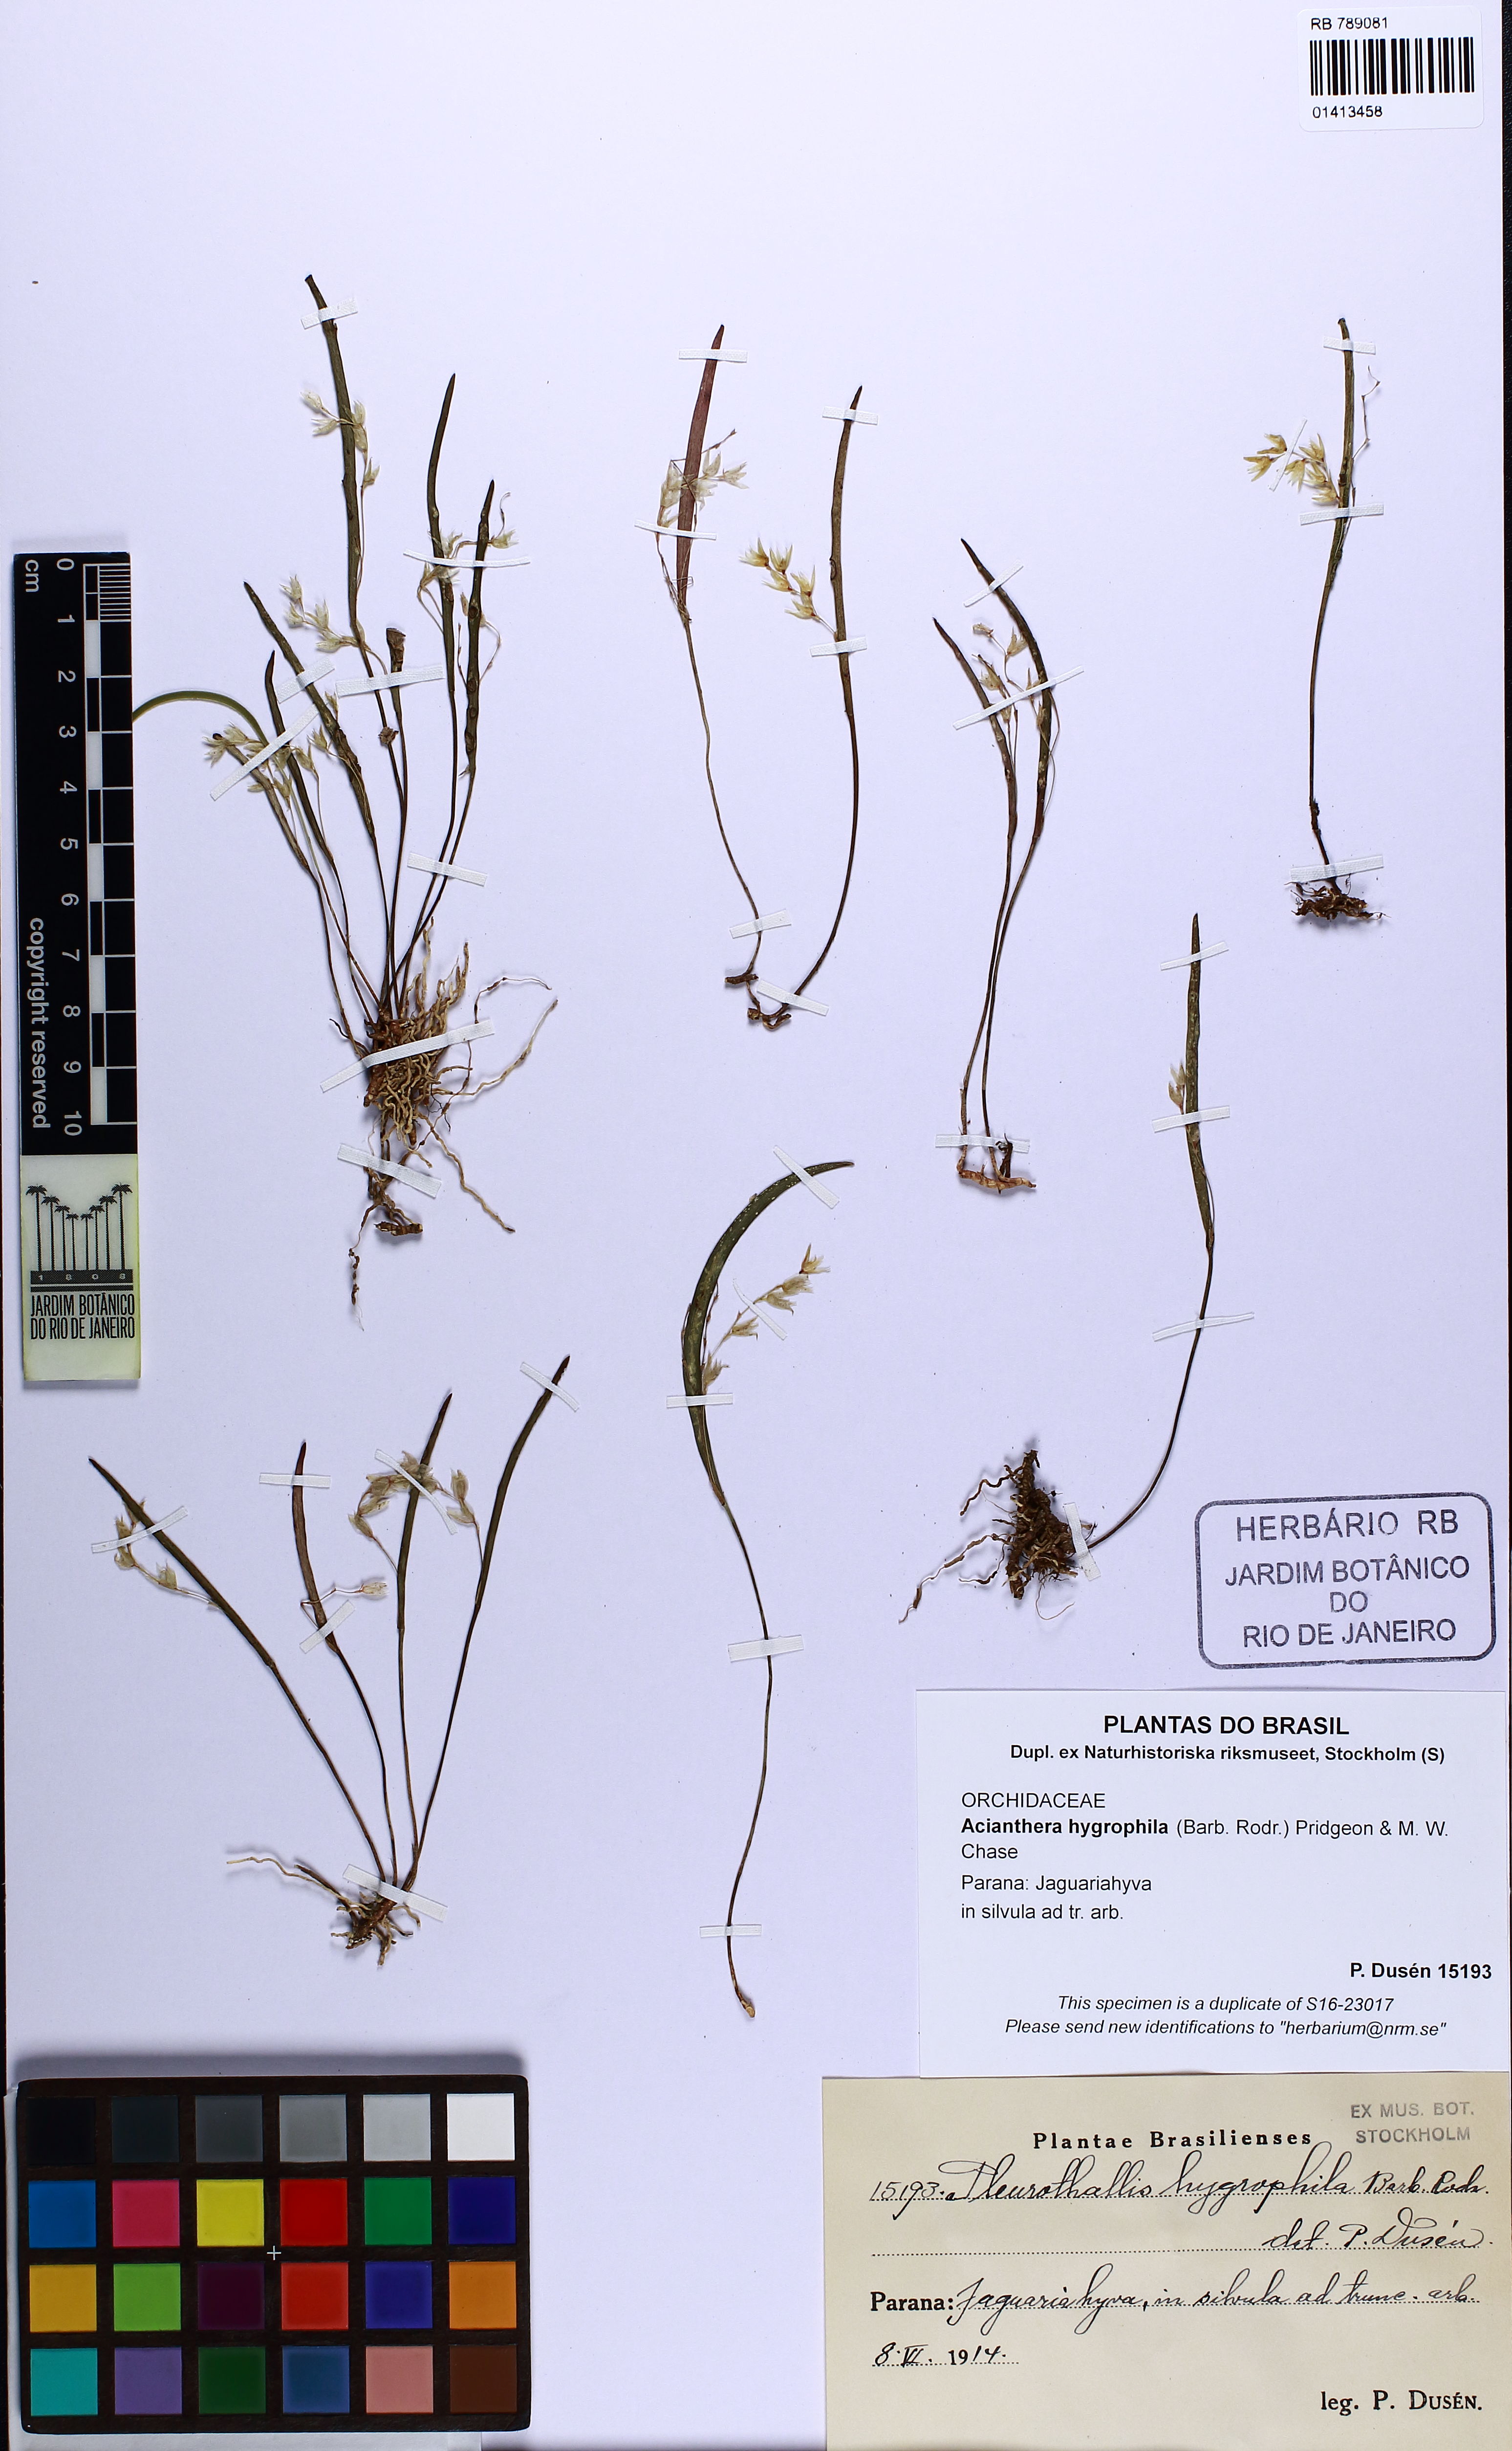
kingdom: Plantae
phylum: Tracheophyta
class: Liliopsida
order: Asparagales
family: Orchidaceae
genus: Acianthera
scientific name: Acianthera hygrophila
